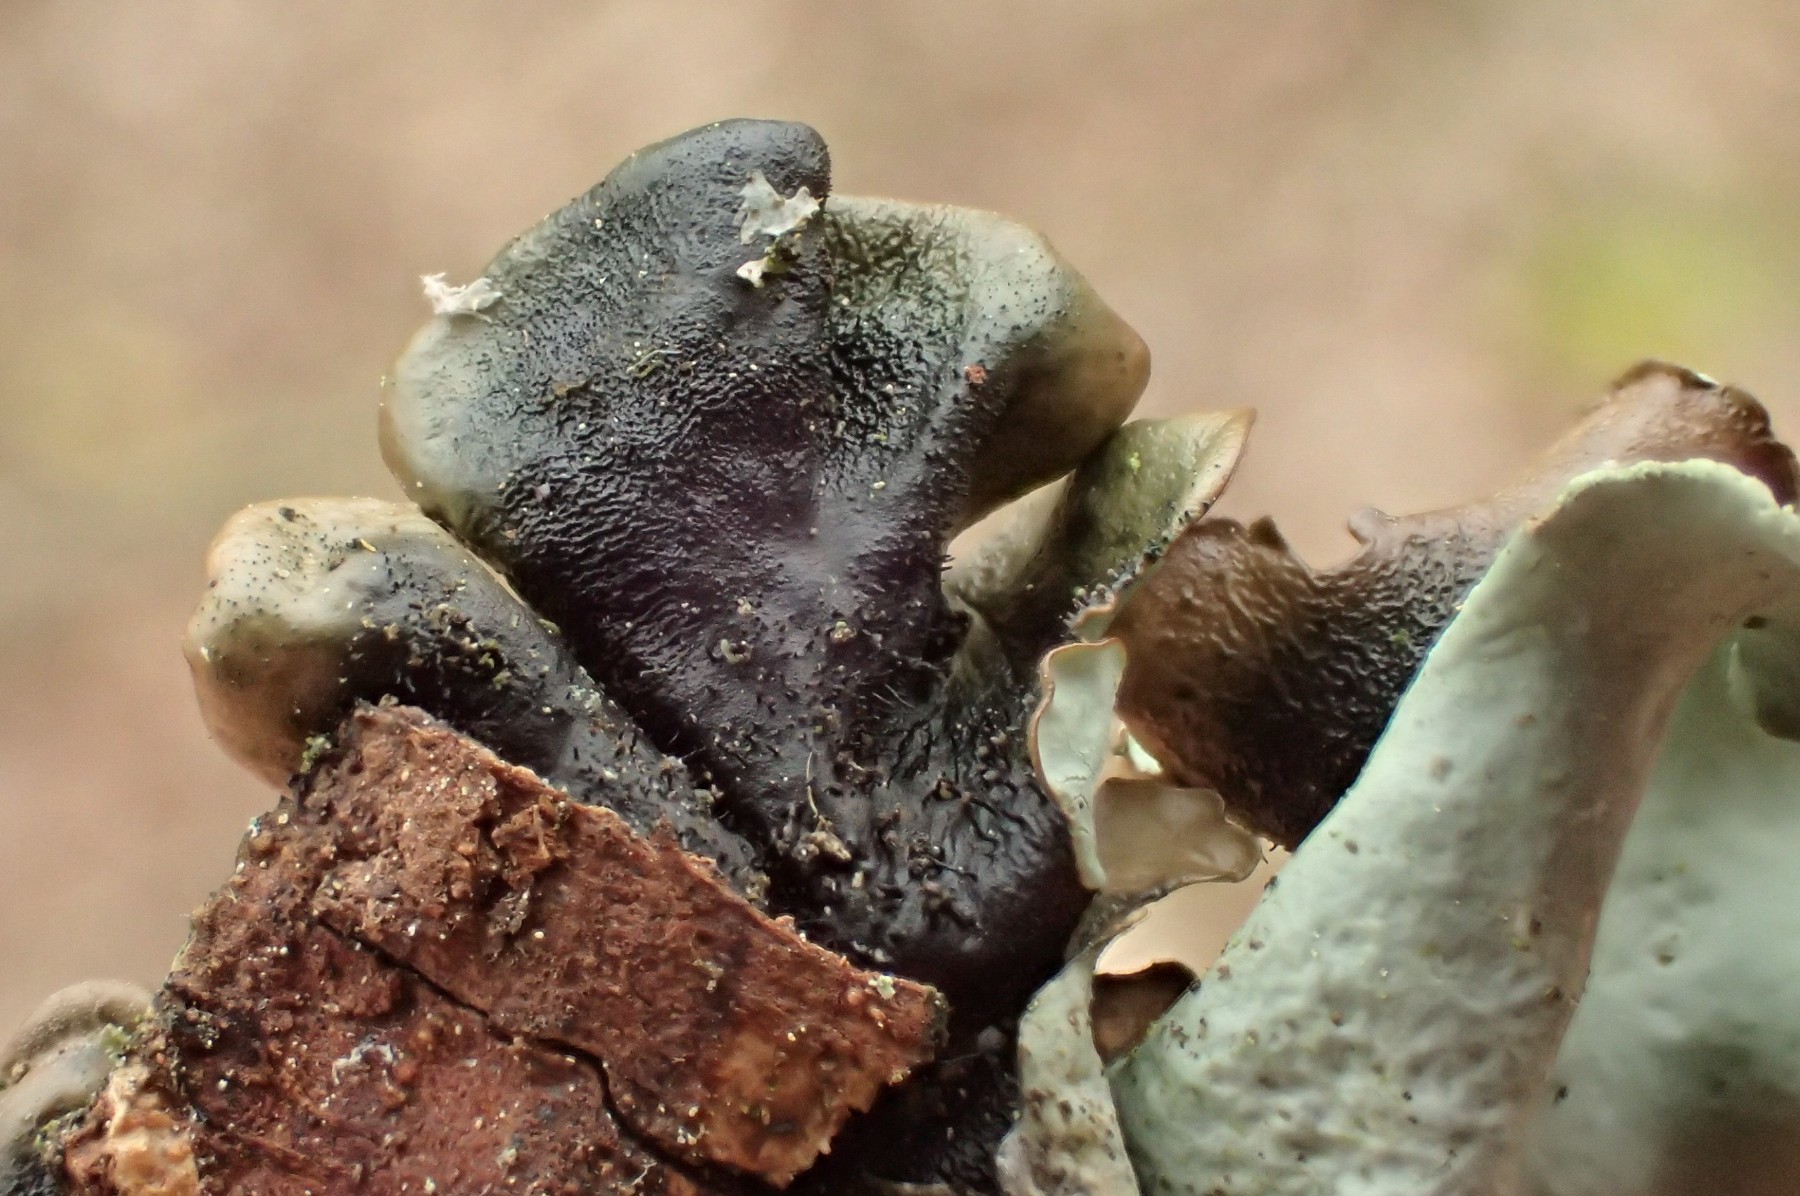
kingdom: Fungi
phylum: Ascomycota
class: Lecanoromycetes
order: Lecanorales
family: Parmeliaceae
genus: Parmotrema
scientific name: Parmotrema perlatum
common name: trådet skållav
